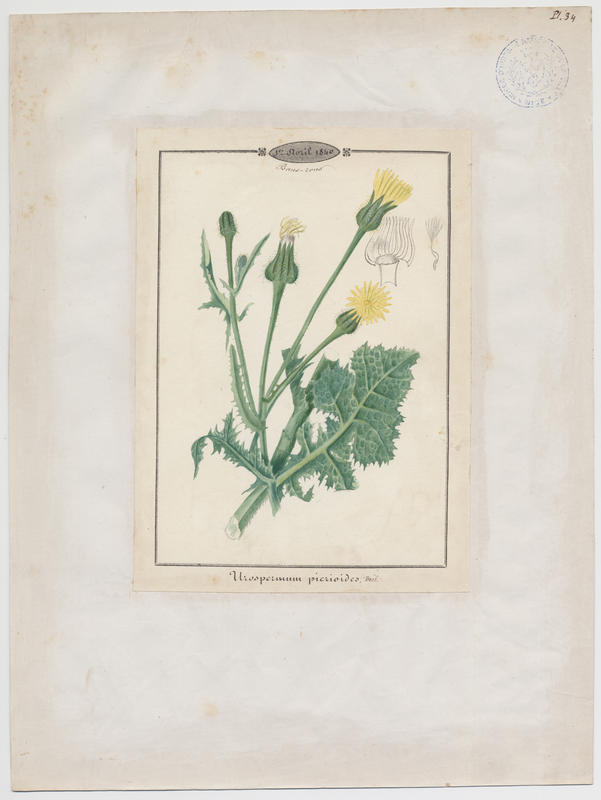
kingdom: Plantae
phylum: Tracheophyta
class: Magnoliopsida
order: Asterales
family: Asteraceae
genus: Urospermum
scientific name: Urospermum picroides
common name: False hawkbit
